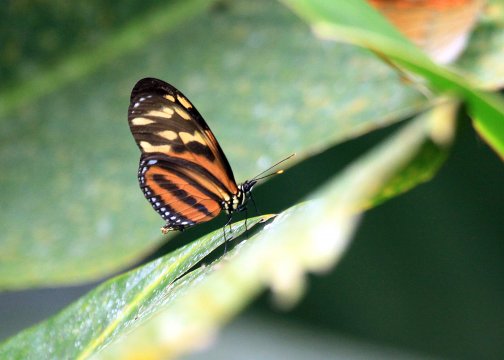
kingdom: Animalia
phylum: Arthropoda
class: Insecta
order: Lepidoptera
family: Nymphalidae
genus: Eueides
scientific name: Eueides isabella
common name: Isabella's Heliconian
